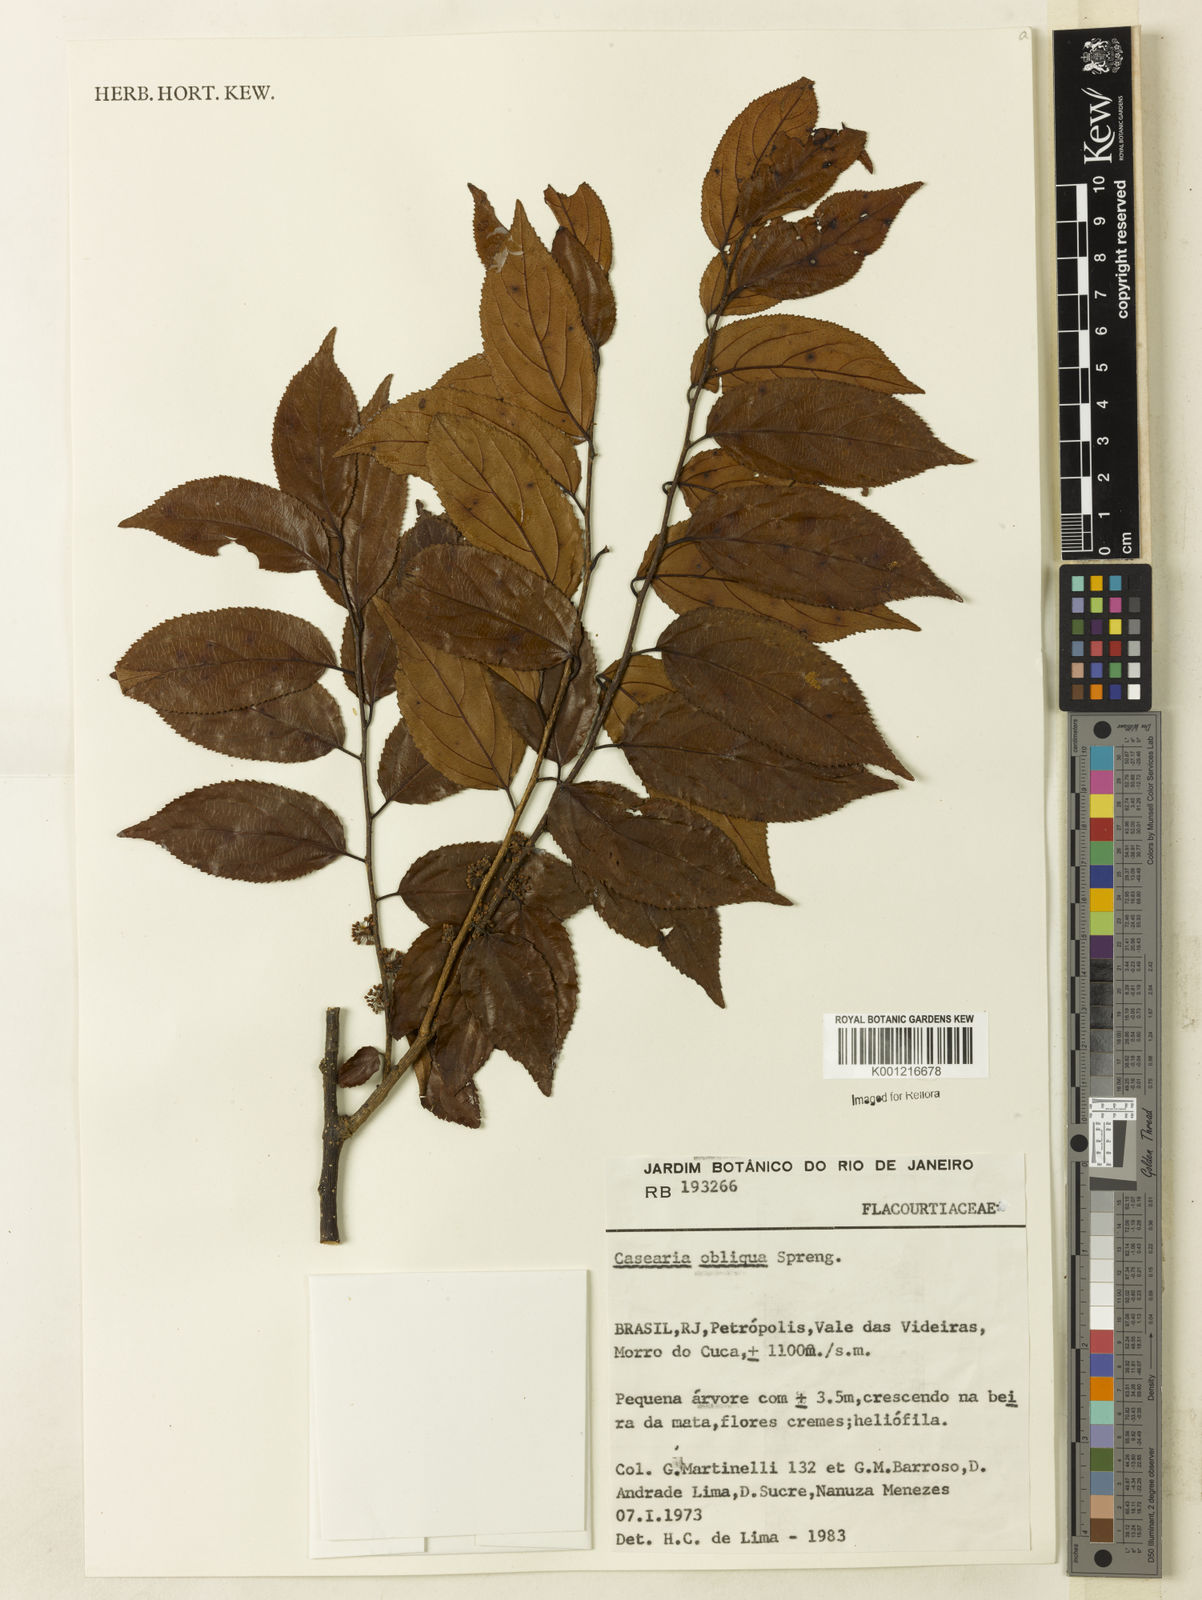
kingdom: Plantae
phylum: Tracheophyta
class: Magnoliopsida
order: Malpighiales
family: Salicaceae
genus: Casearia
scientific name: Casearia obliqua
